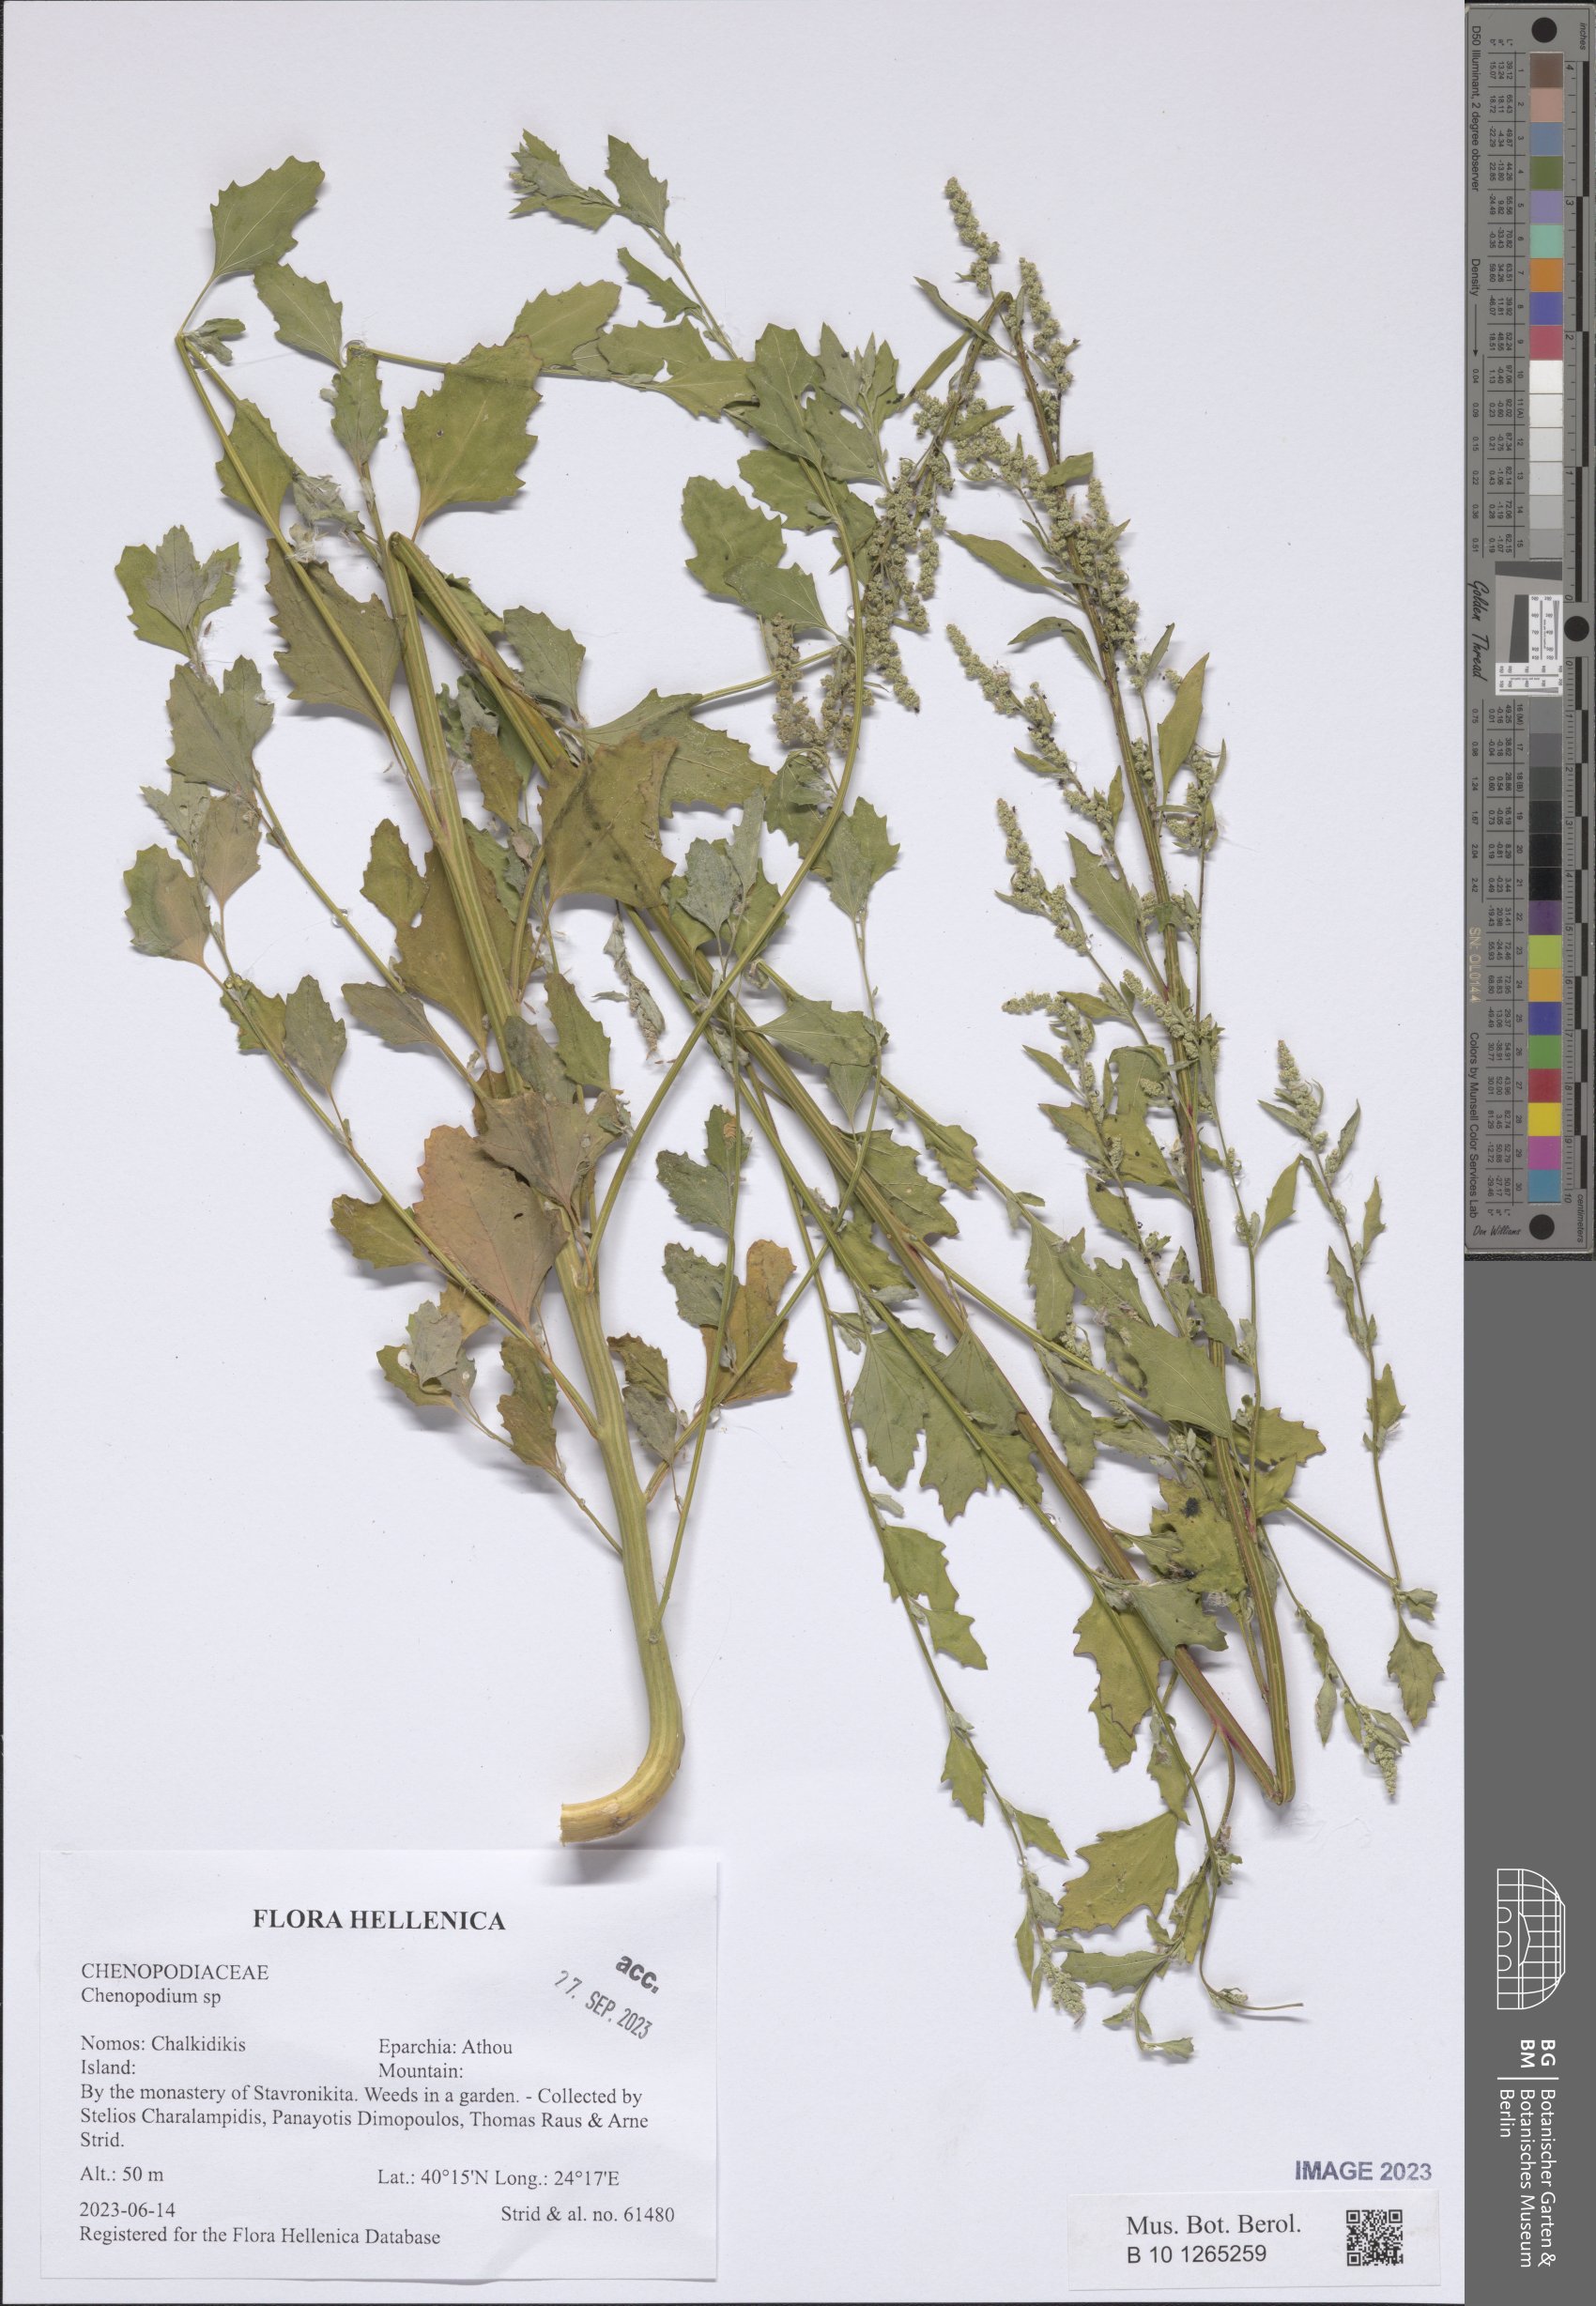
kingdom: Plantae
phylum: Tracheophyta
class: Magnoliopsida
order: Caryophyllales
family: Amaranthaceae
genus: Chenopodium
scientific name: Chenopodium
